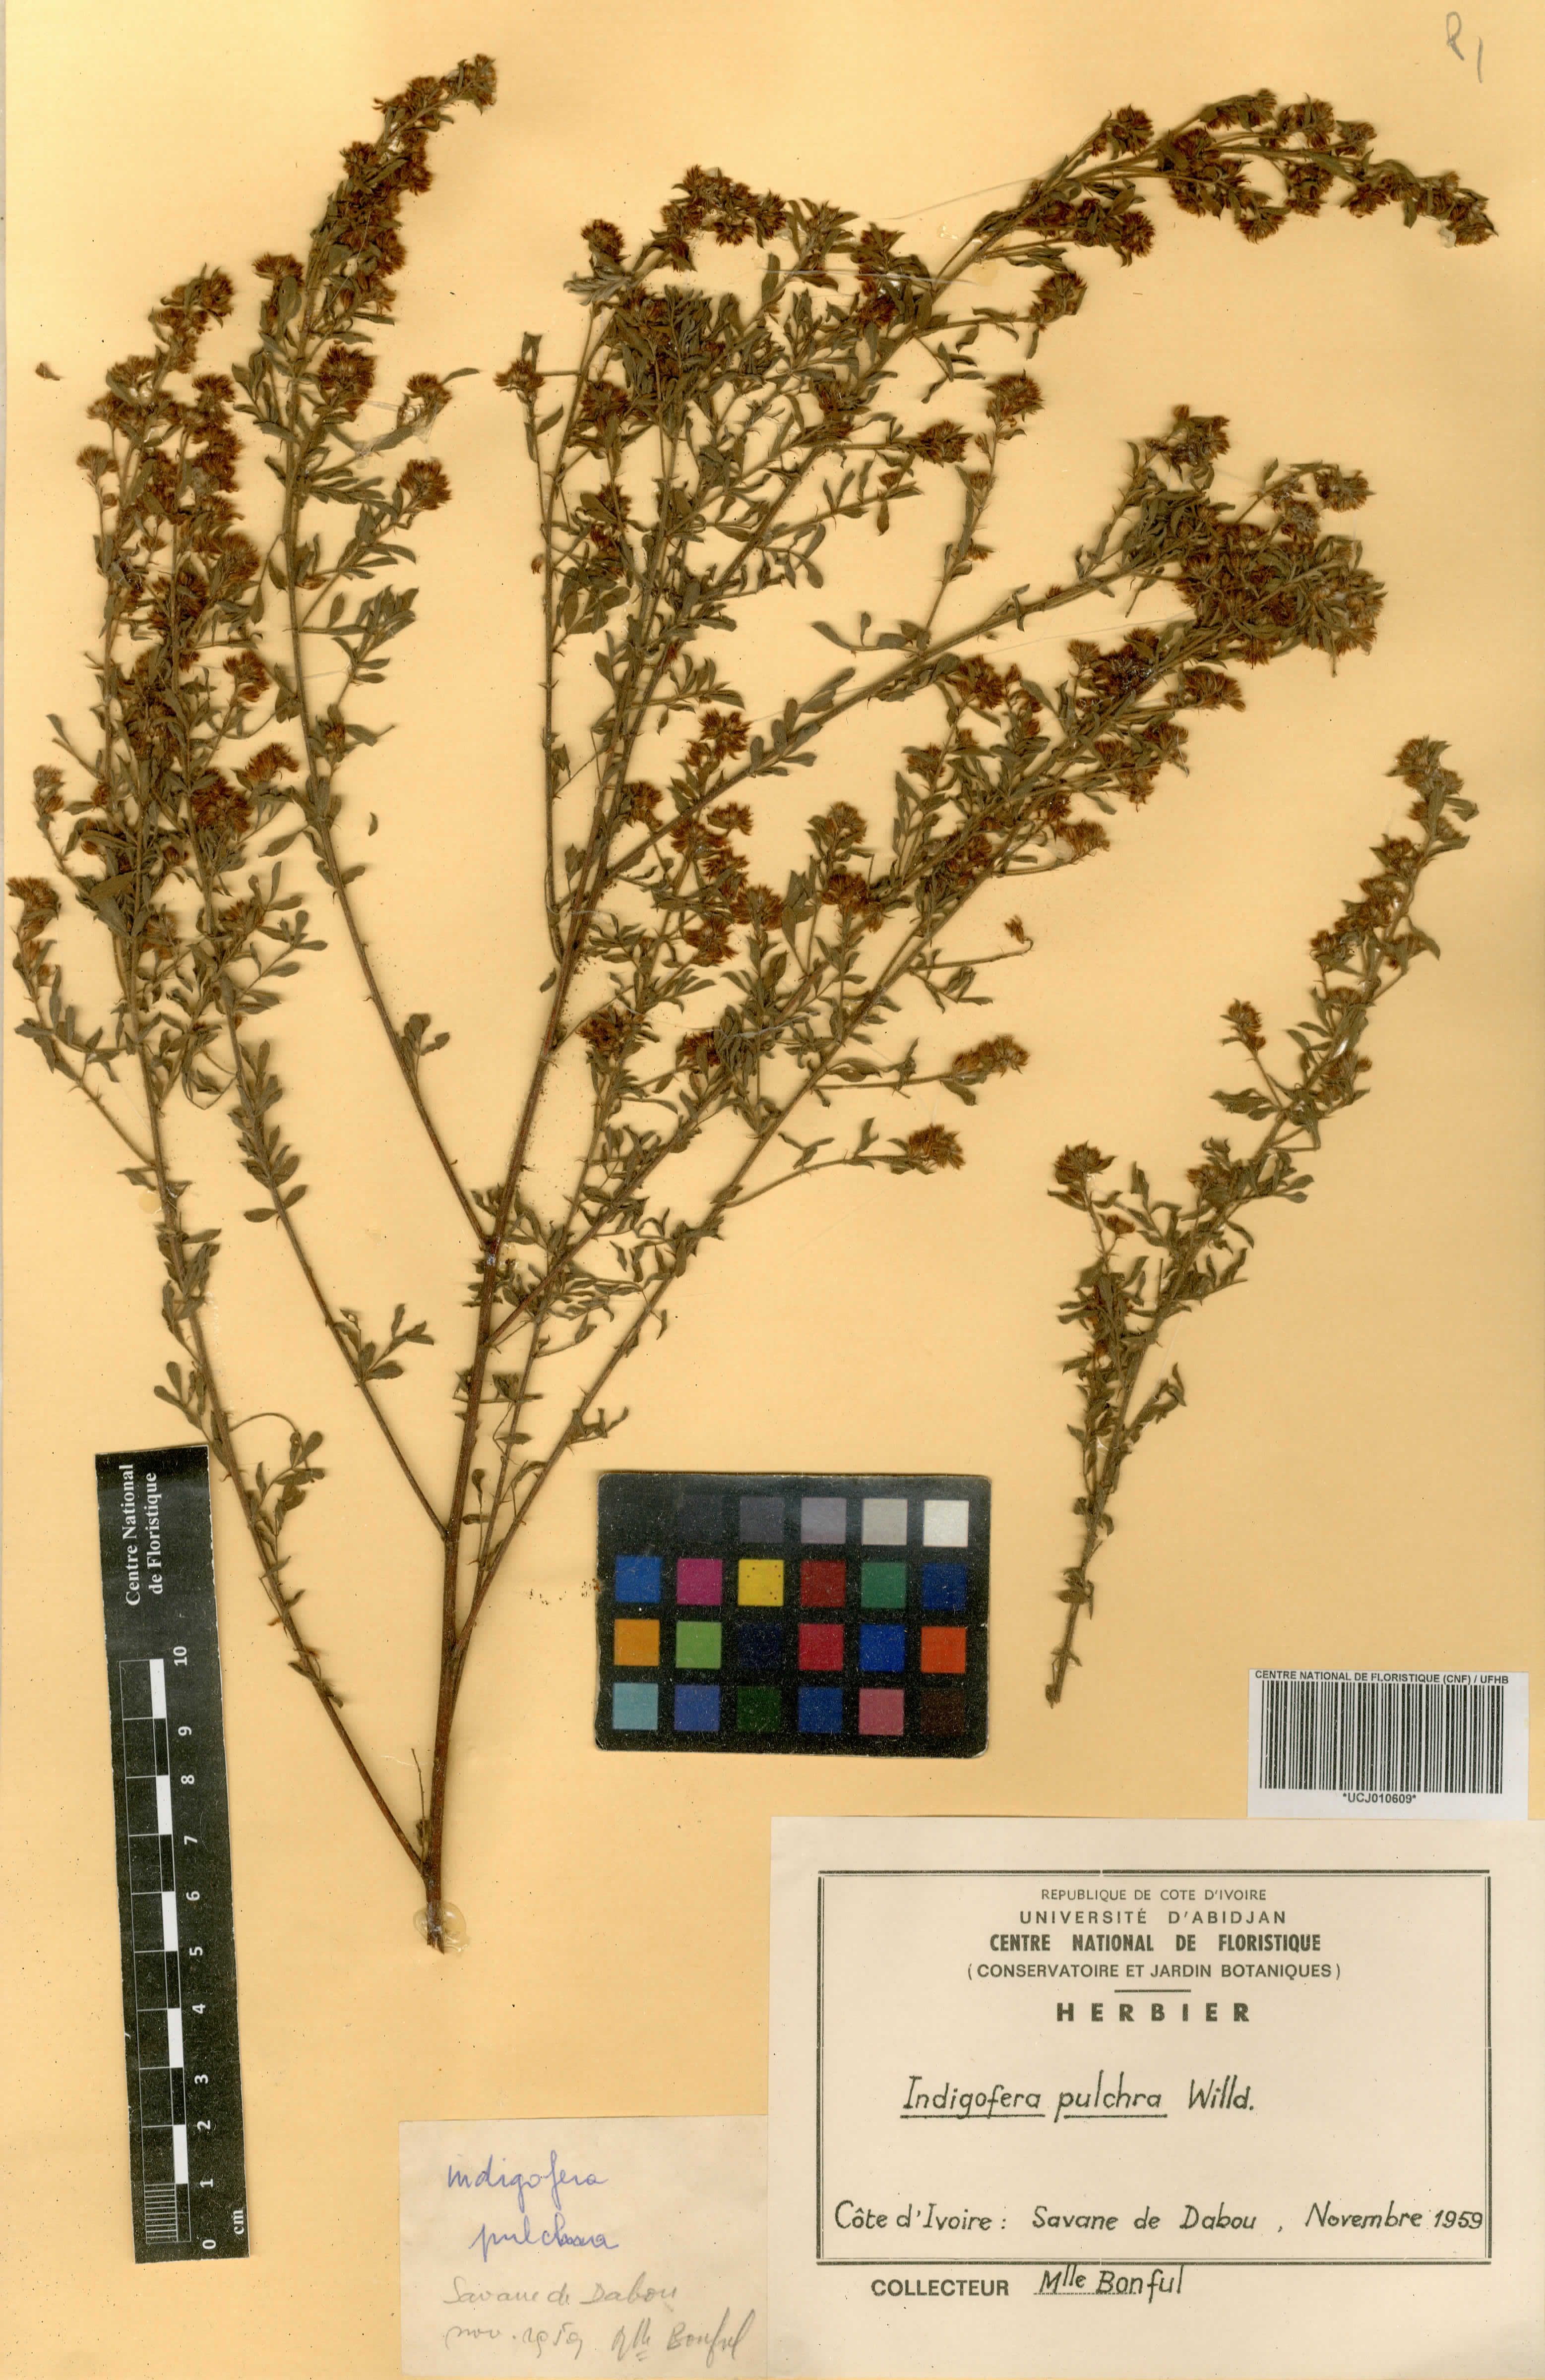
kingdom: Plantae
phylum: Tracheophyta
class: Magnoliopsida
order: Fabales
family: Fabaceae
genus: Indigofera
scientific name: Indigofera pulchra
